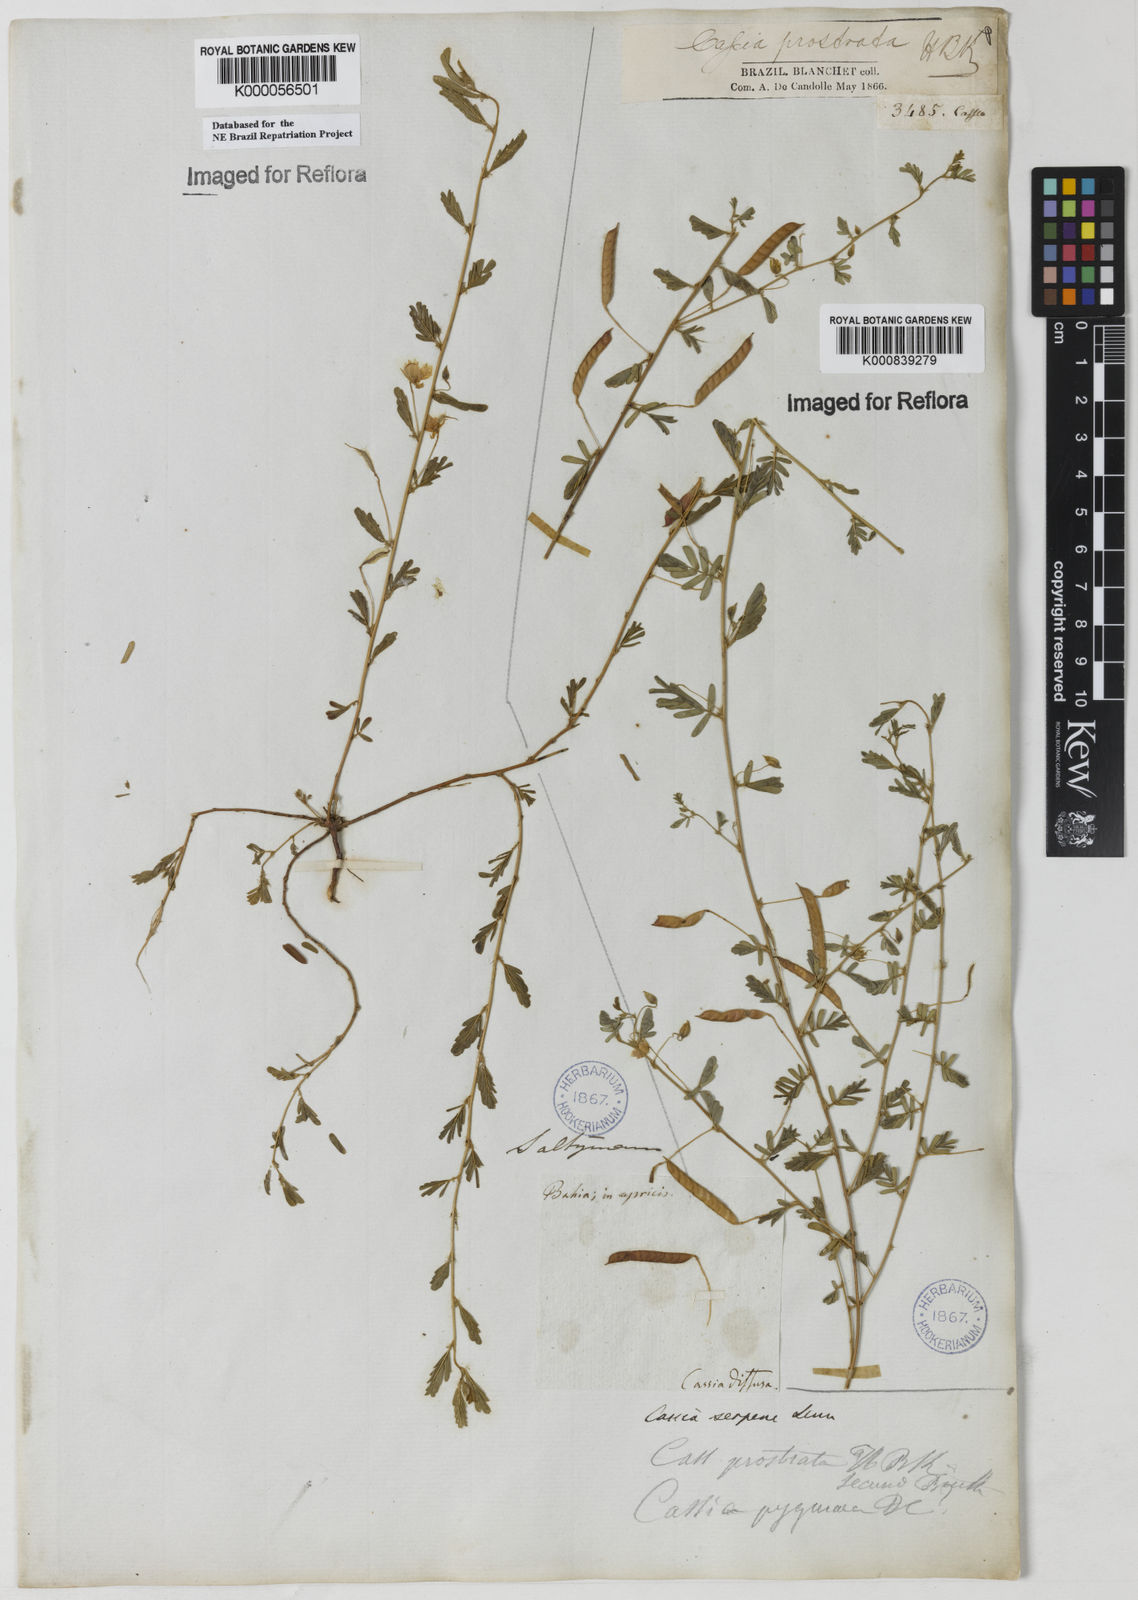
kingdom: Plantae
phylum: Tracheophyta
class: Magnoliopsida
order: Fabales
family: Fabaceae
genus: Chamaecrista
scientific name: Chamaecrista serpens
